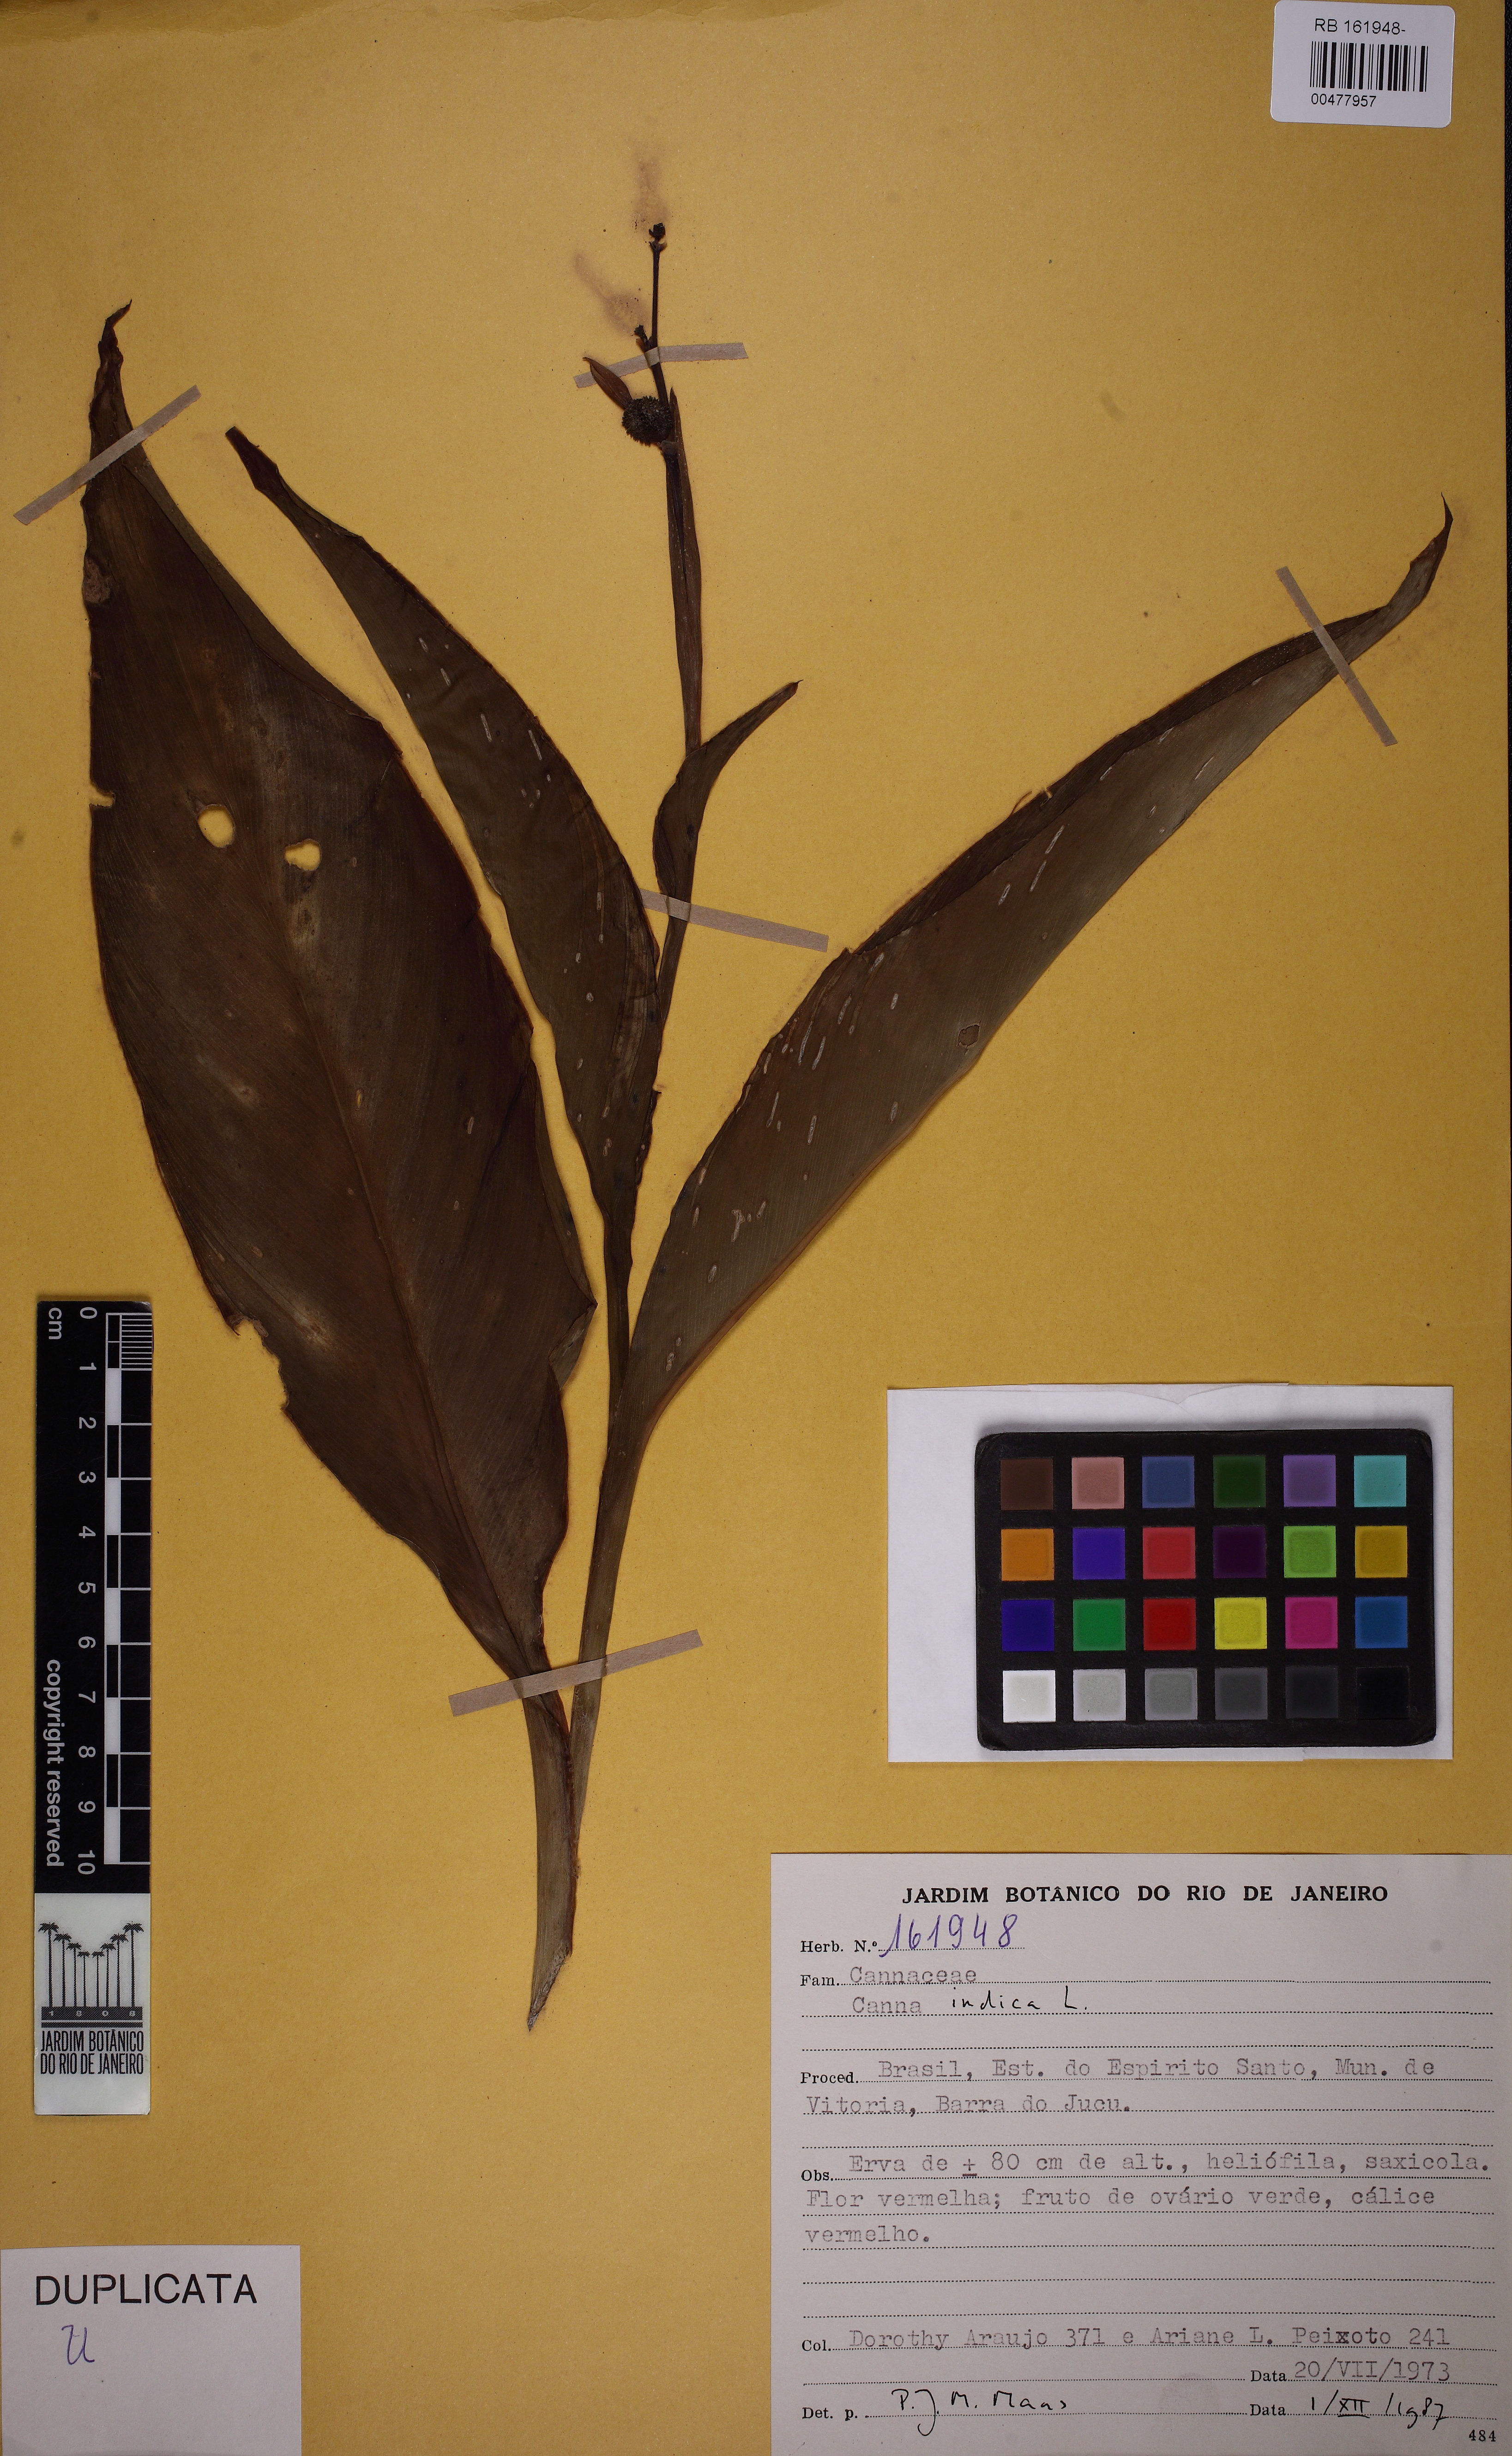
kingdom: Plantae
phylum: Tracheophyta
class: Liliopsida
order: Zingiberales
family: Cannaceae
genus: Canna
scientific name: Canna indica
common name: Indian shot
